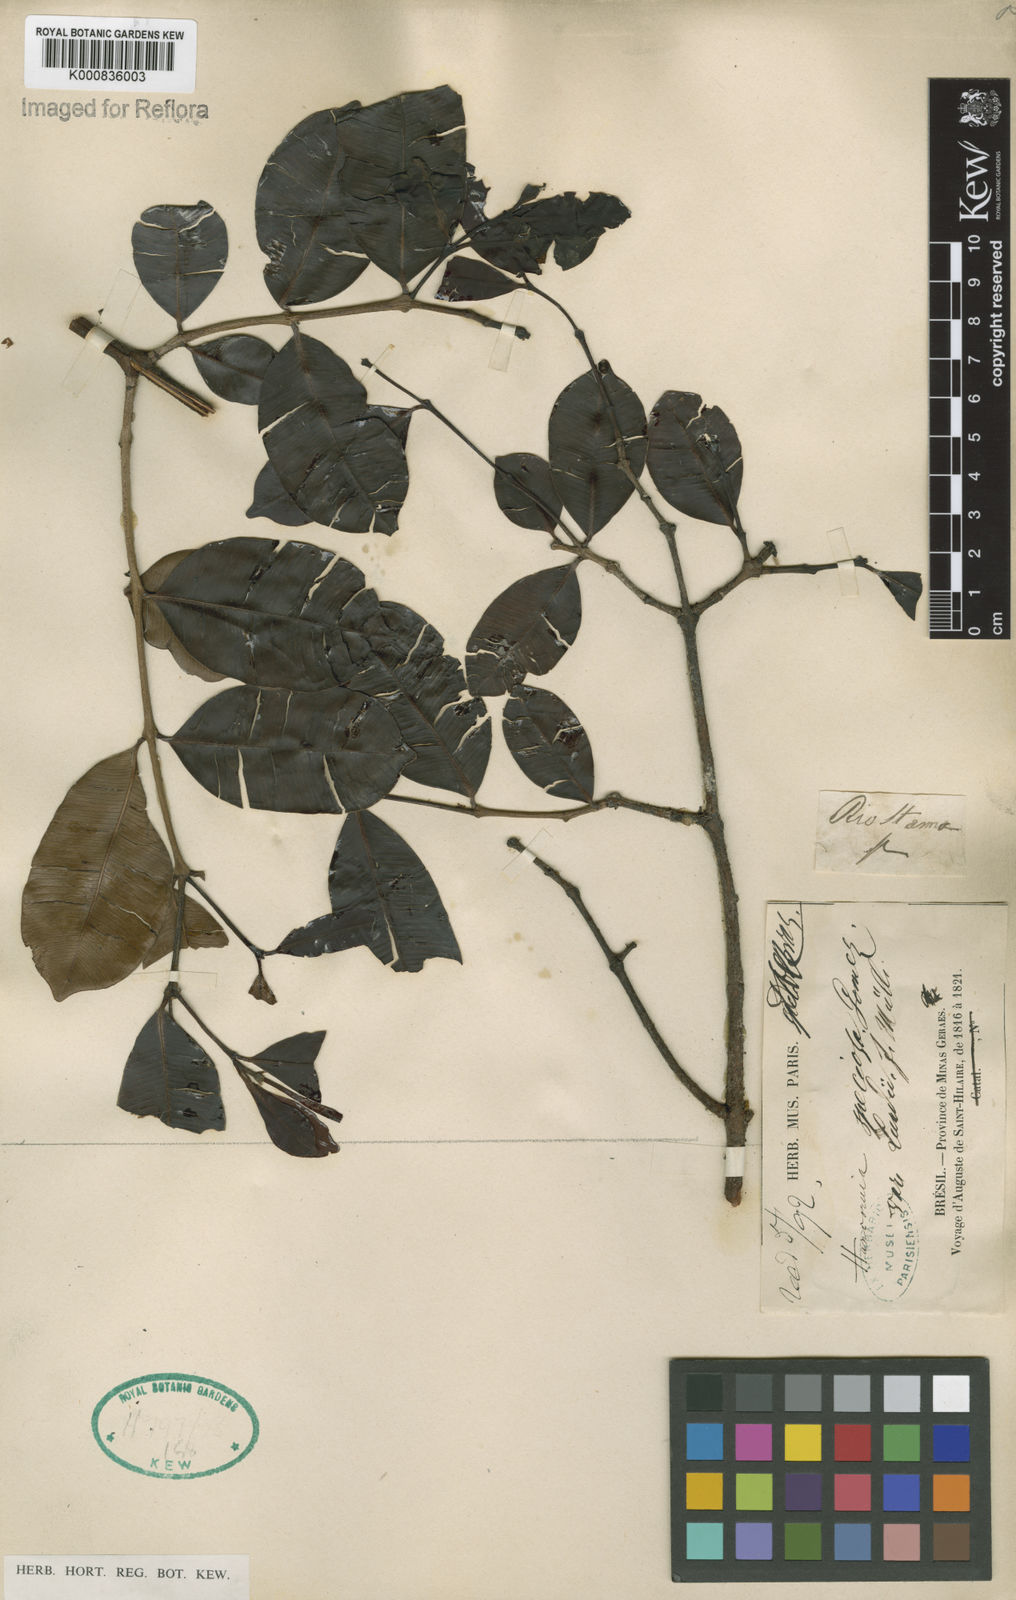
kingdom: Plantae
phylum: Tracheophyta
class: Magnoliopsida
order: Gentianales
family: Apocynaceae
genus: Hancornia
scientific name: Hancornia speciosa
